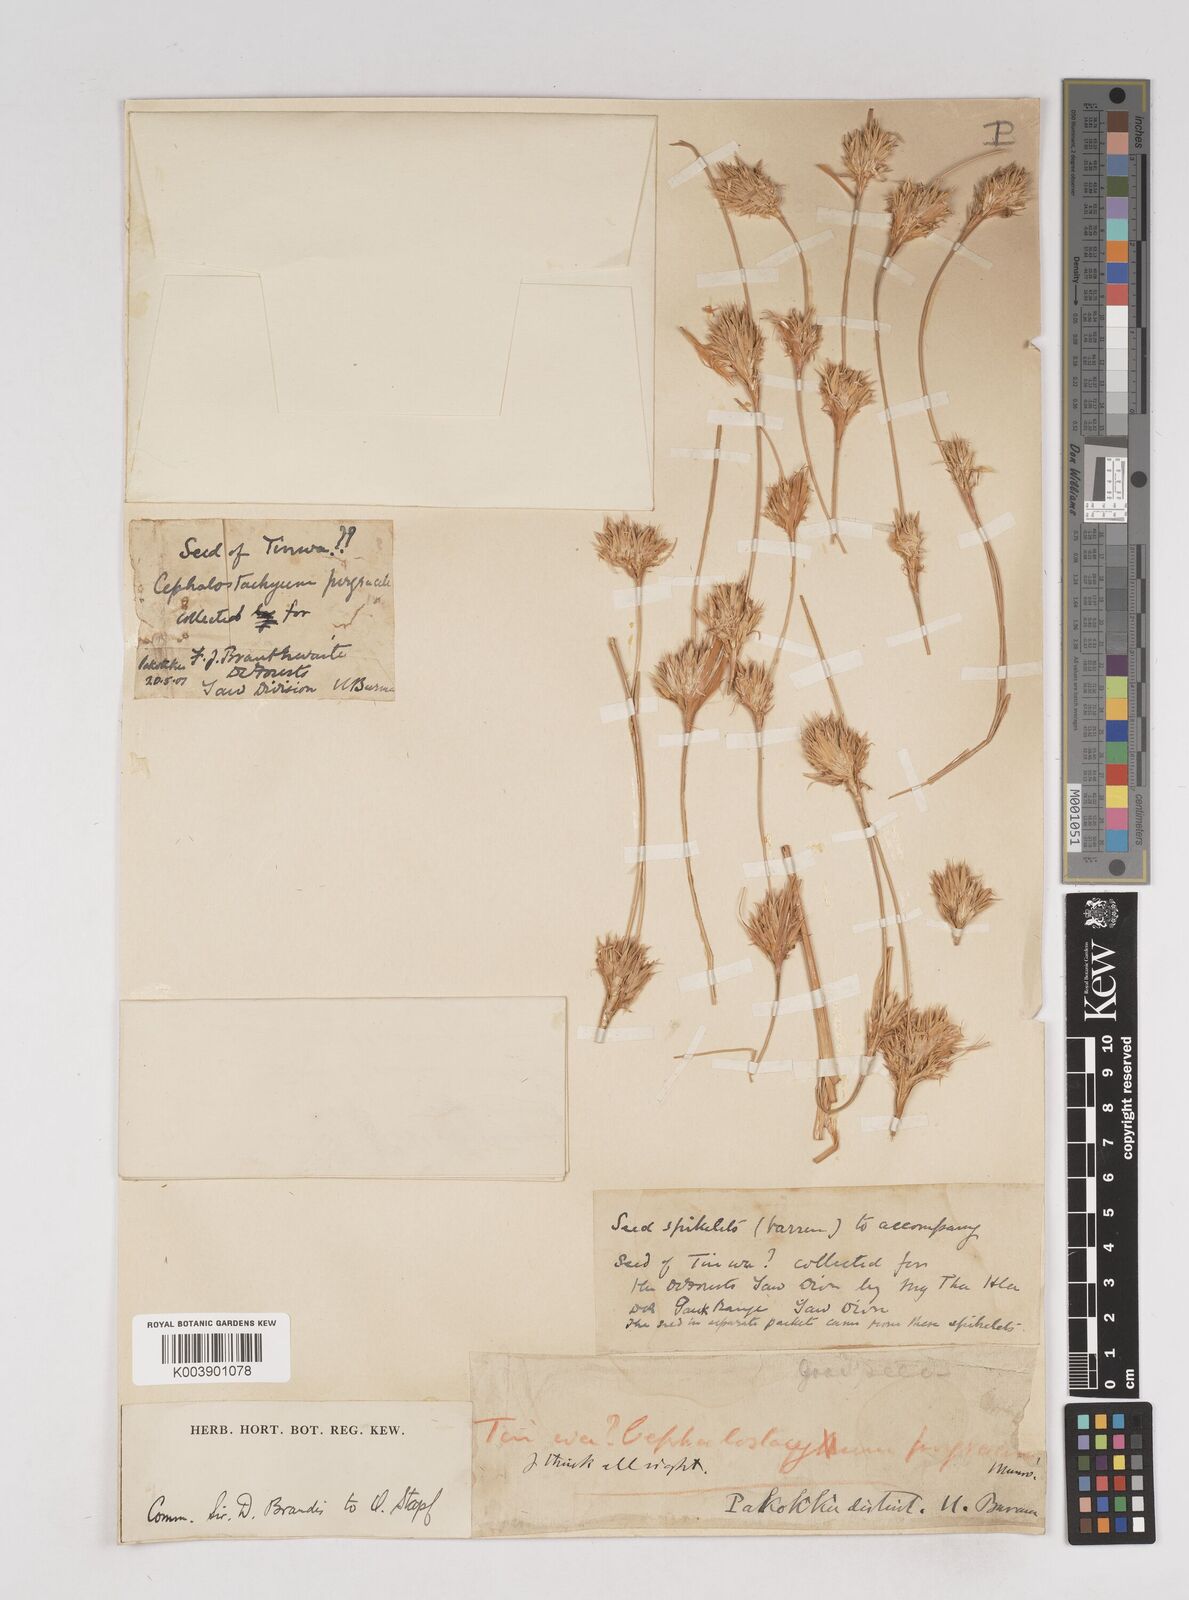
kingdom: Plantae
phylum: Tracheophyta
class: Liliopsida
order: Poales
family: Poaceae
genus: Schizostachyum
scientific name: Schizostachyum pergracile
